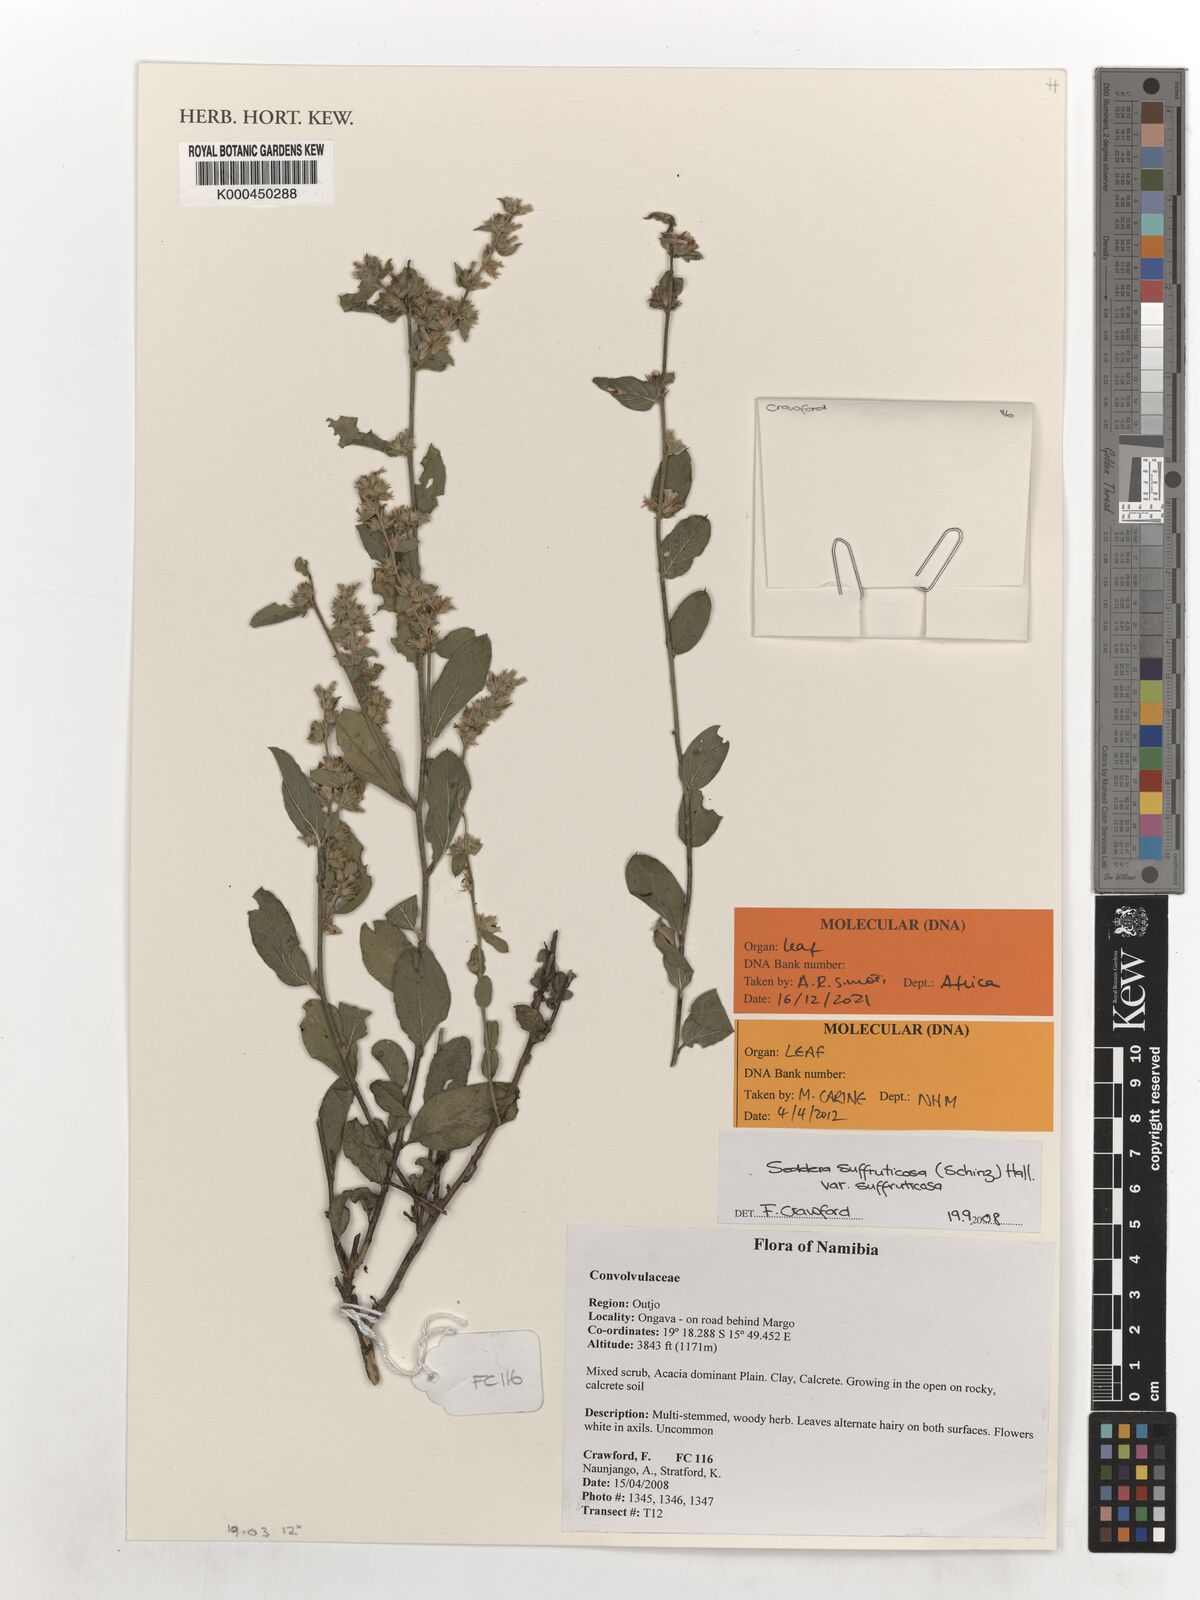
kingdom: Plantae
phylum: Tracheophyta
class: Magnoliopsida
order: Solanales
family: Convolvulaceae
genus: Seddera
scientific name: Seddera suffruticosa
